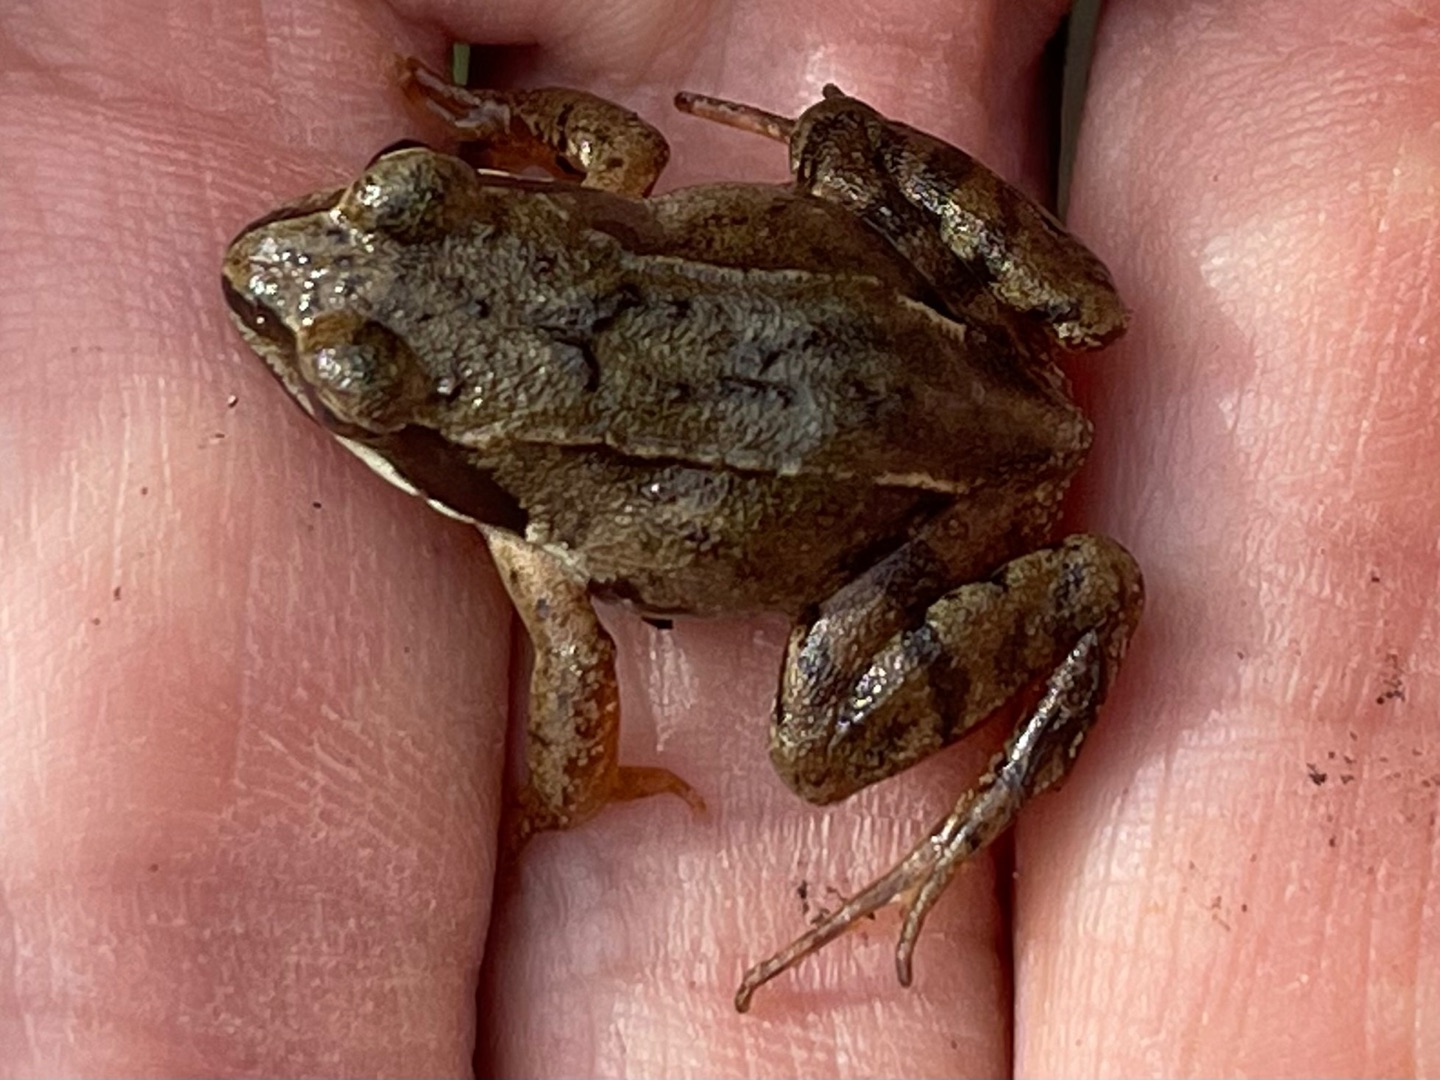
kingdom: Animalia
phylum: Chordata
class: Amphibia
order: Anura
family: Ranidae
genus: Rana
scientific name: Rana temporaria
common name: Butsnudet frø
